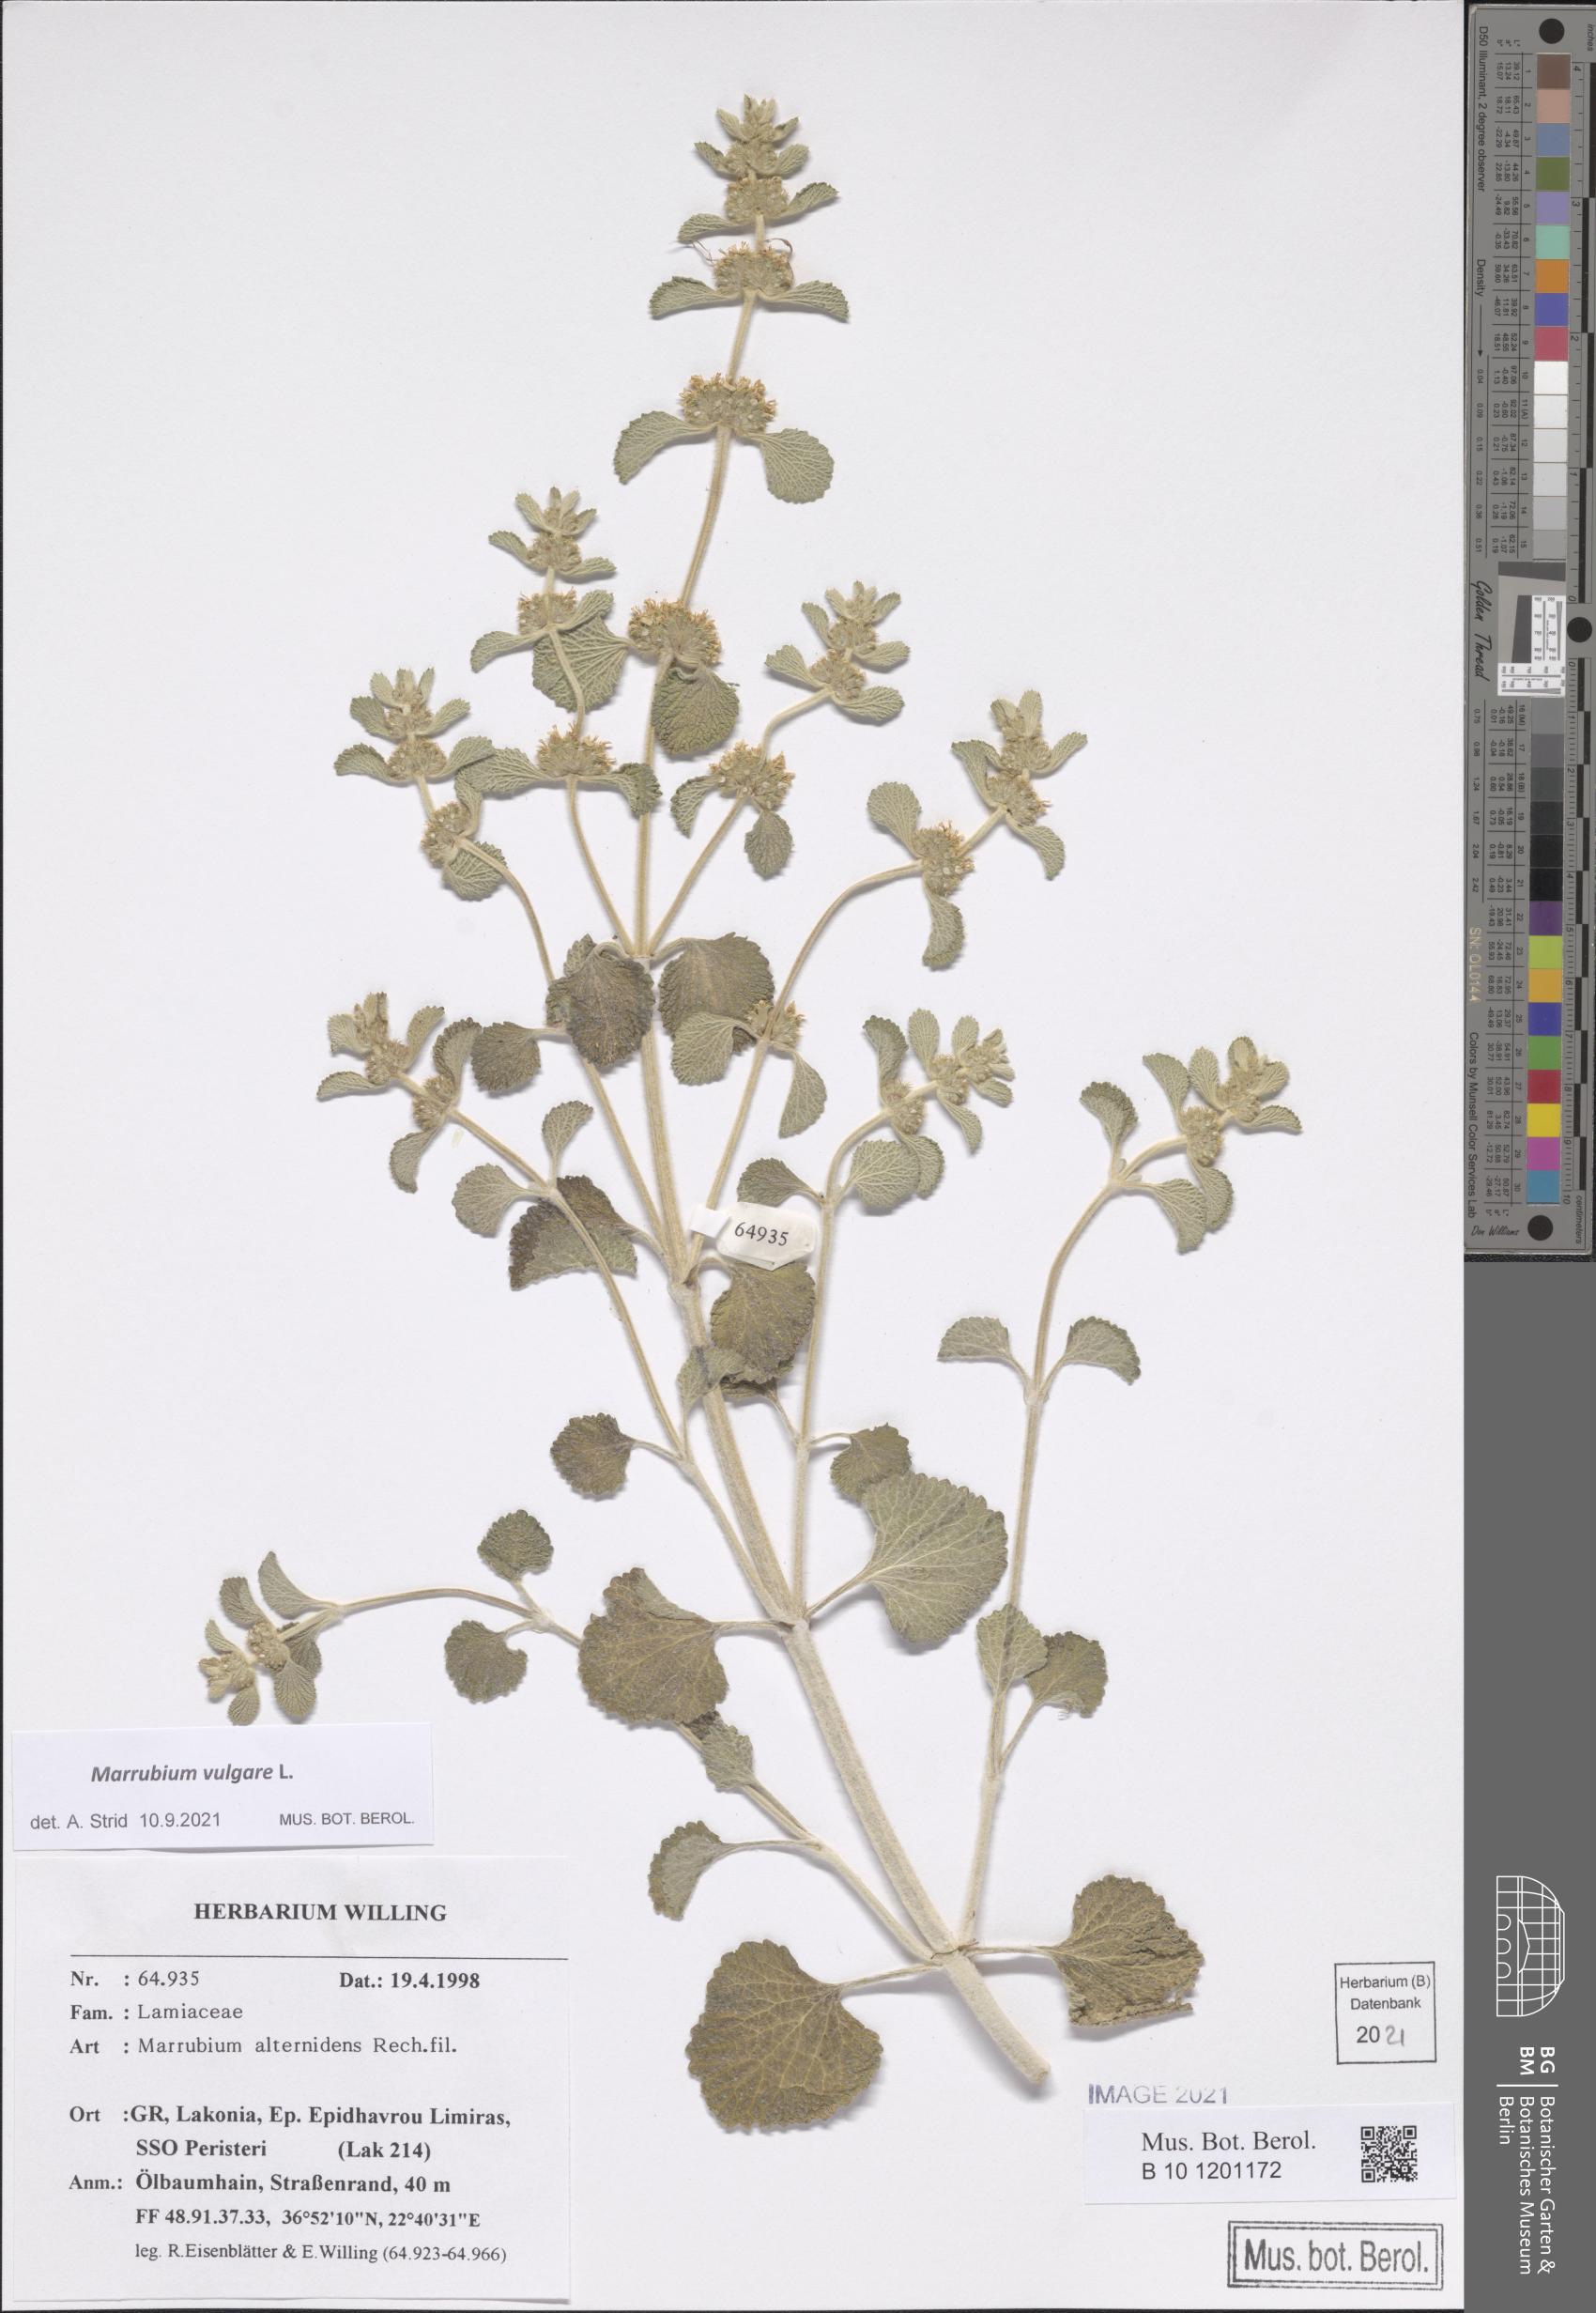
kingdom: Plantae
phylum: Tracheophyta
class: Magnoliopsida
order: Lamiales
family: Lamiaceae
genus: Marrubium
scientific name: Marrubium vulgare
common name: Horehound
